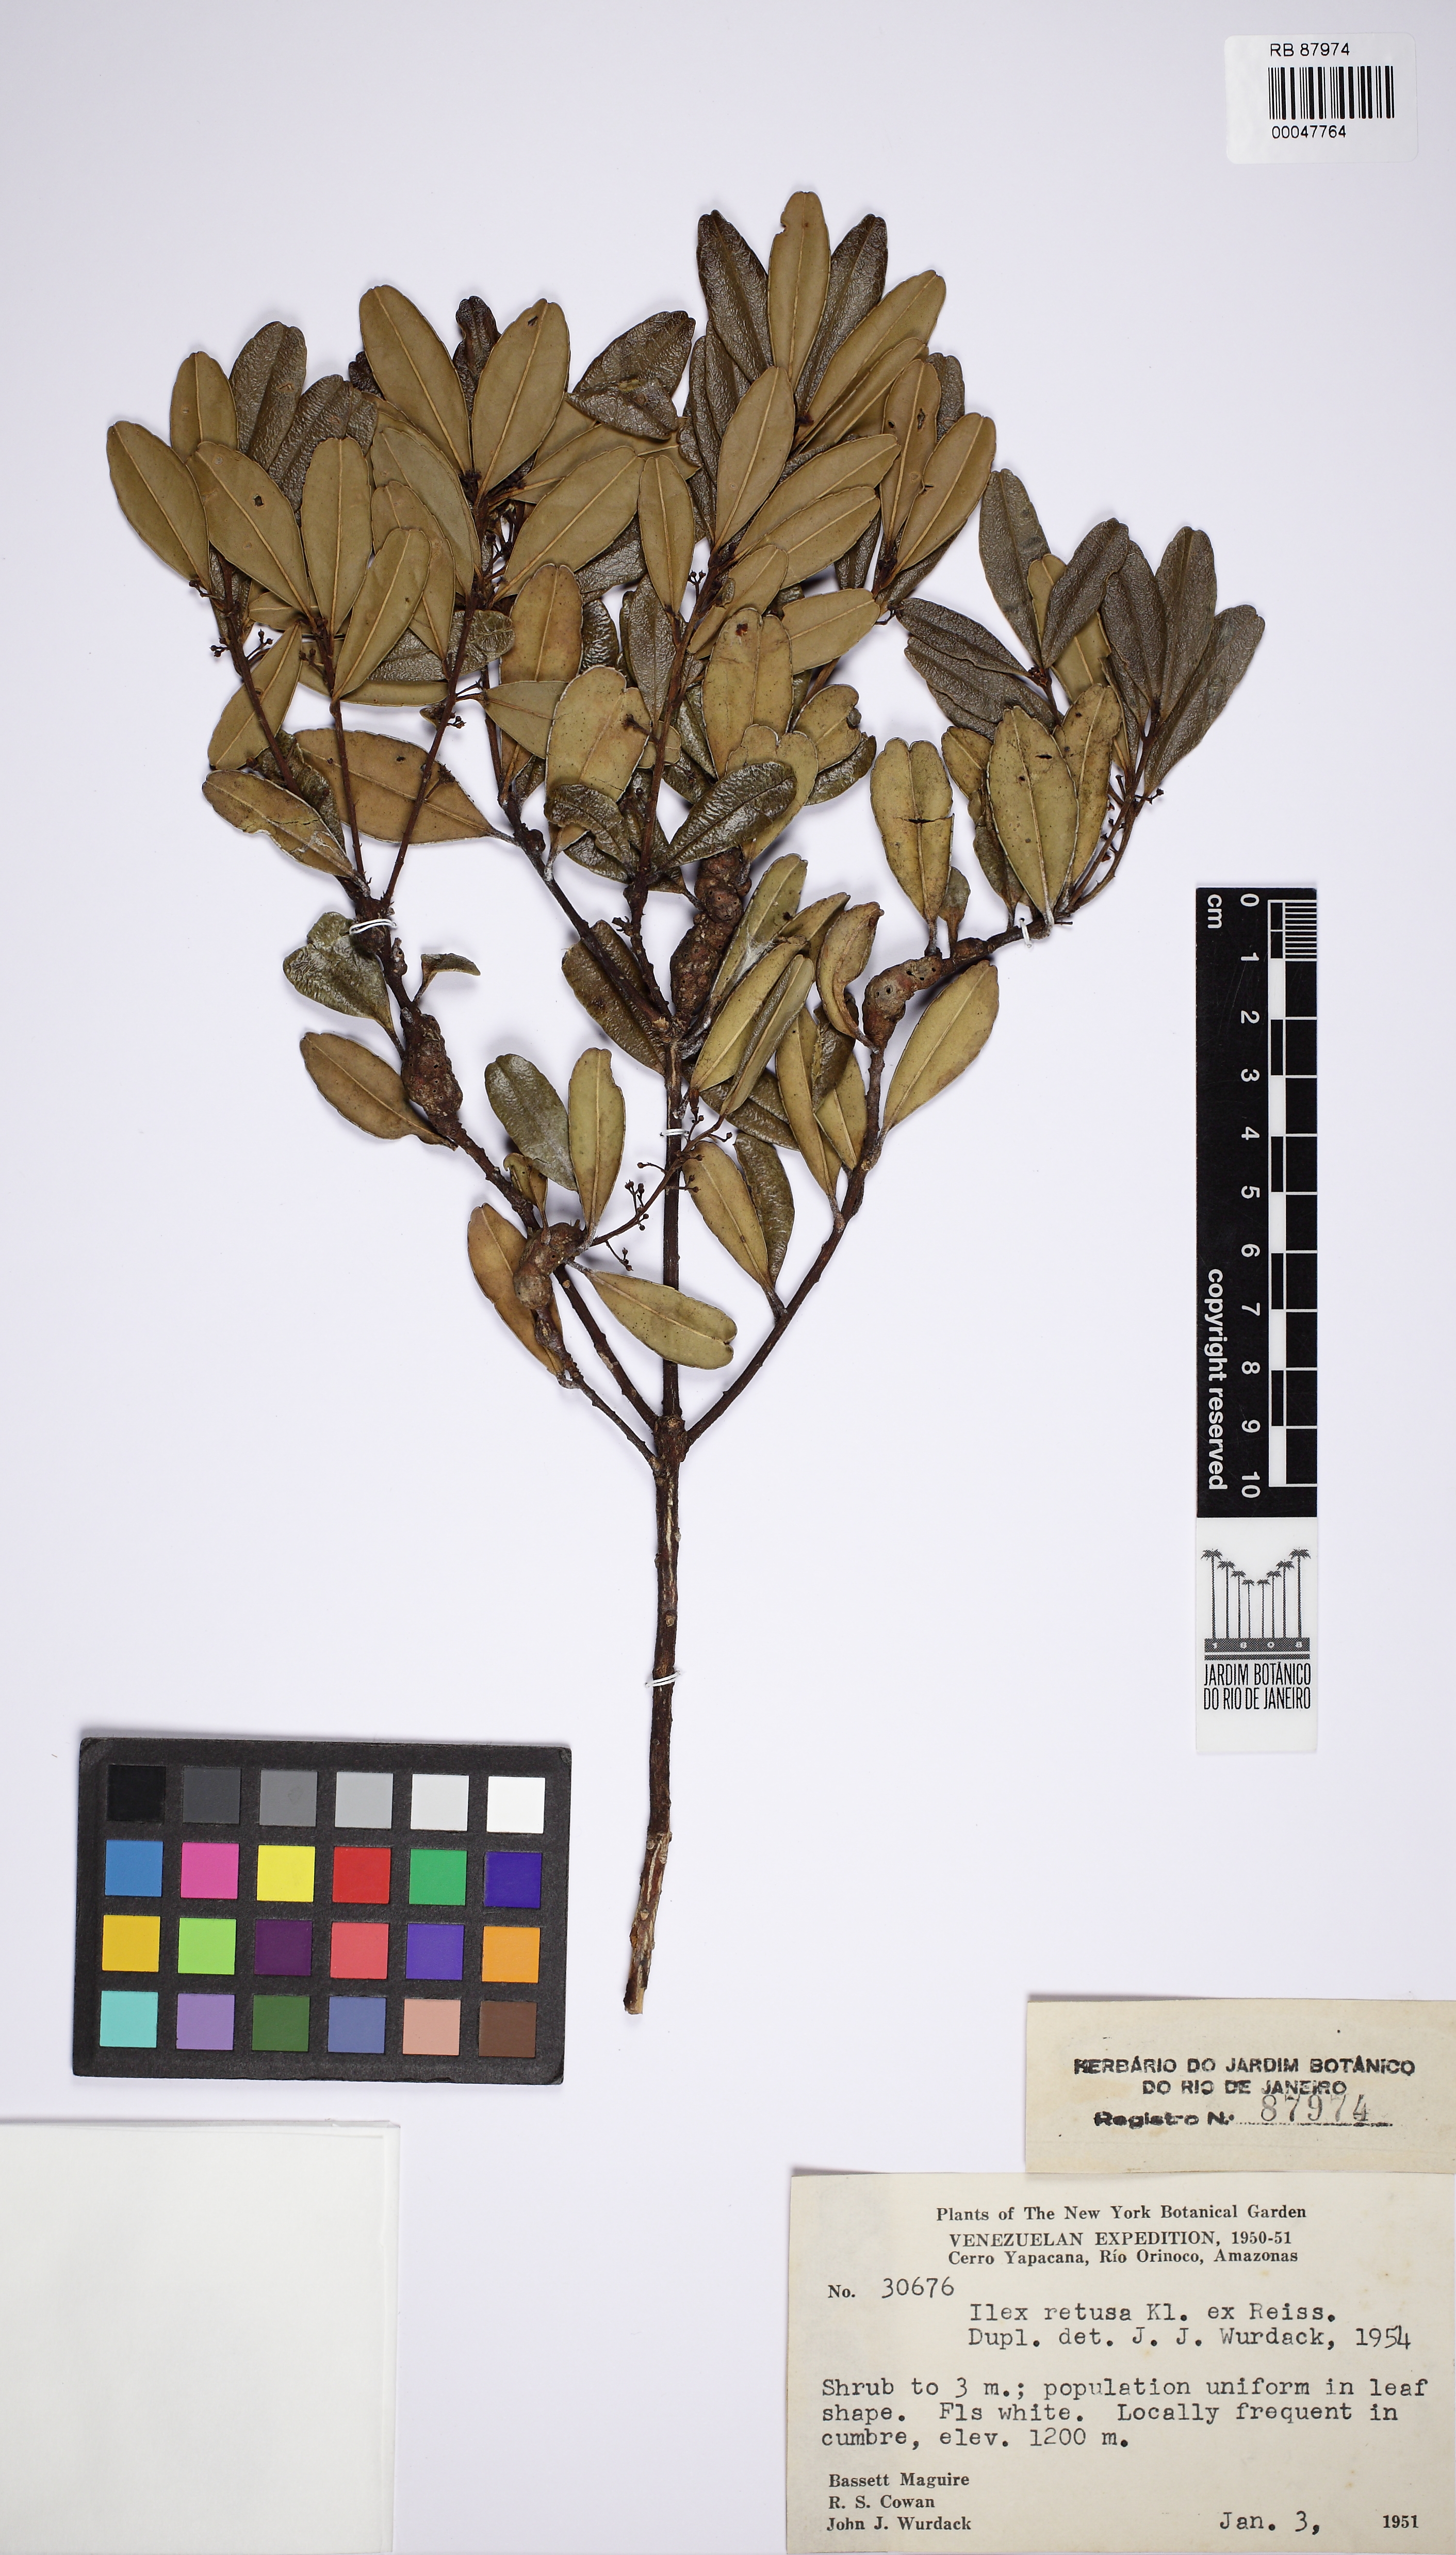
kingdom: Plantae
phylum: Tracheophyta
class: Magnoliopsida
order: Aquifoliales
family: Aquifoliaceae
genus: Ilex
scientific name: Ilex retusa
